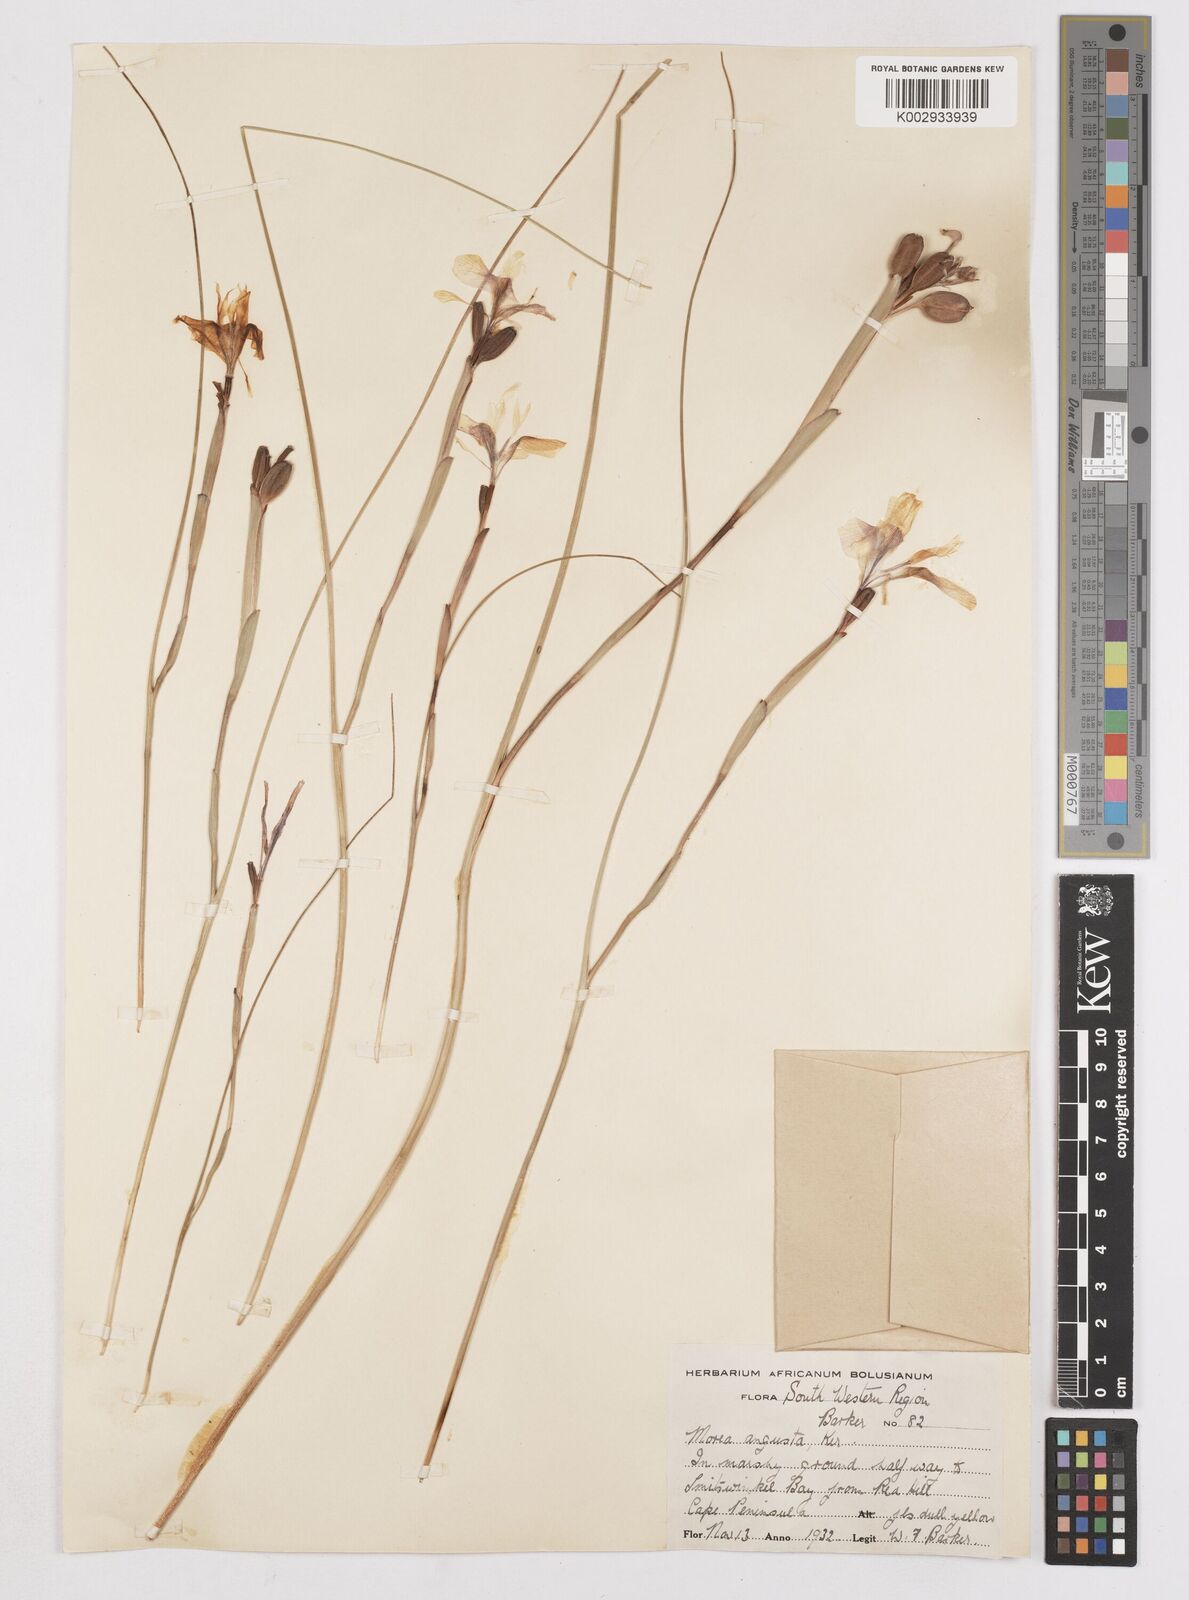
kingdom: Plantae
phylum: Tracheophyta
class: Liliopsida
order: Asparagales
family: Iridaceae
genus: Moraea
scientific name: Moraea angusta
